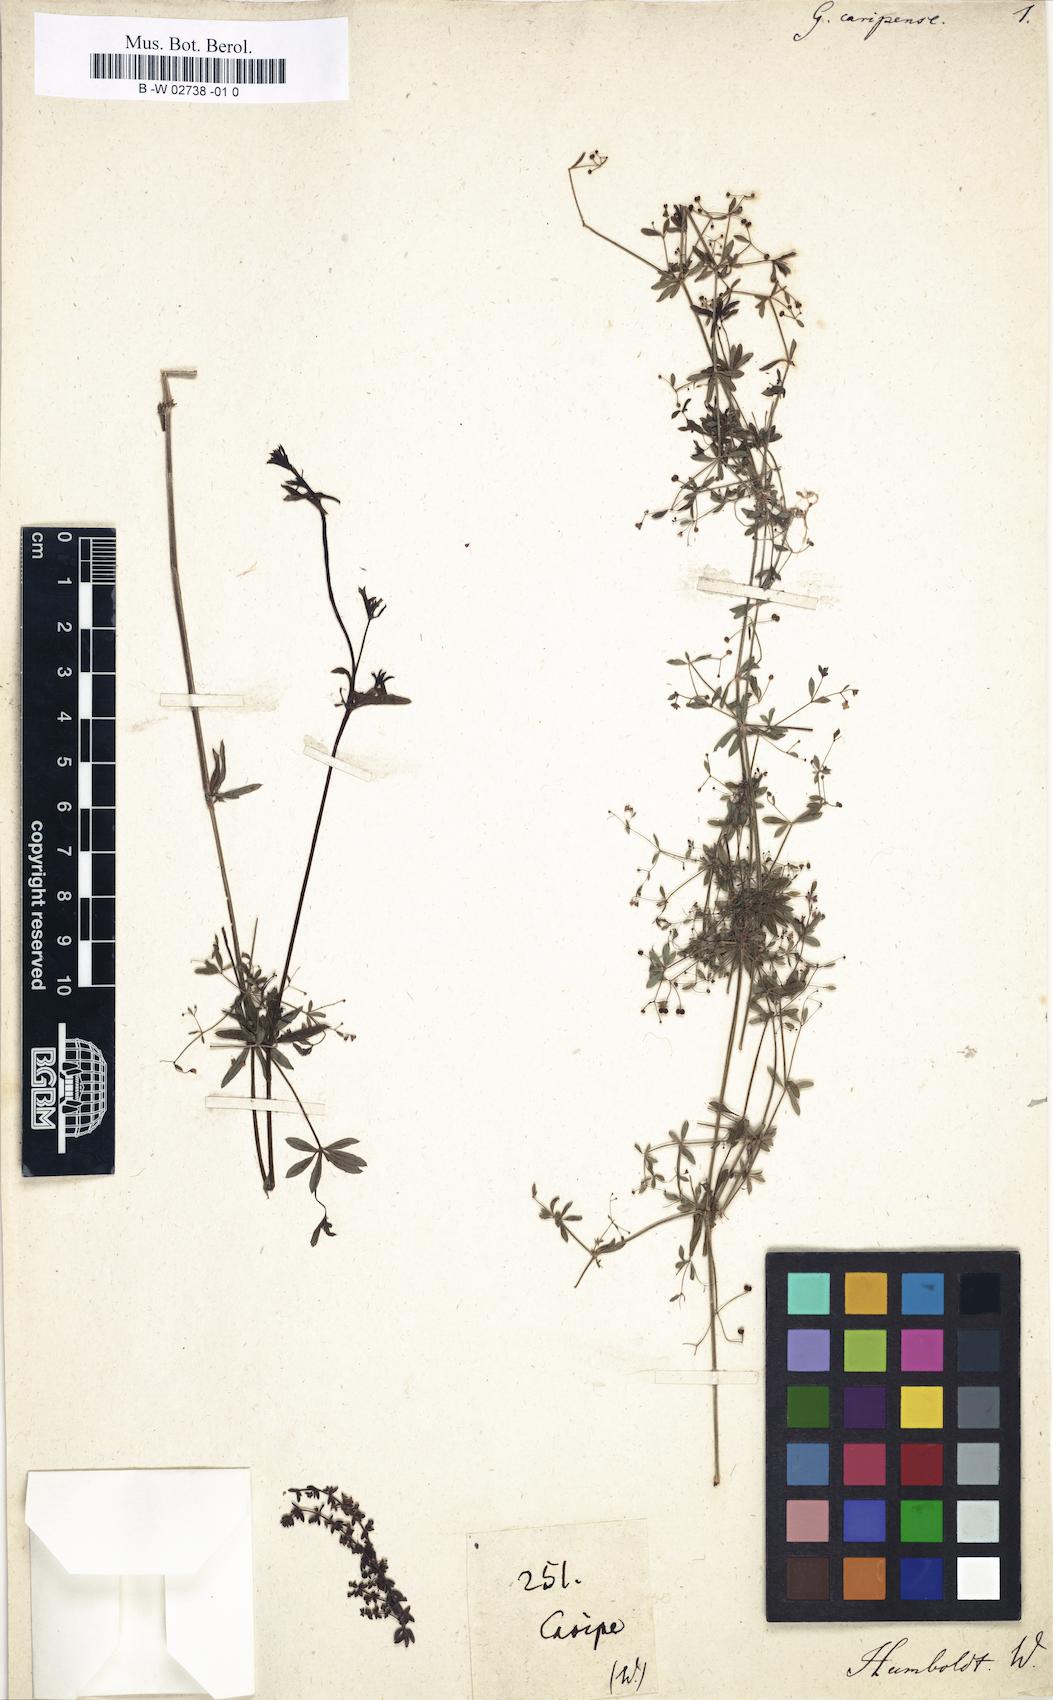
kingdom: Plantae
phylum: Tracheophyta
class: Magnoliopsida
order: Gentianales
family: Rubiaceae
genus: Galium
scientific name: Galium mexicanum
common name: Mexican bedstraw
